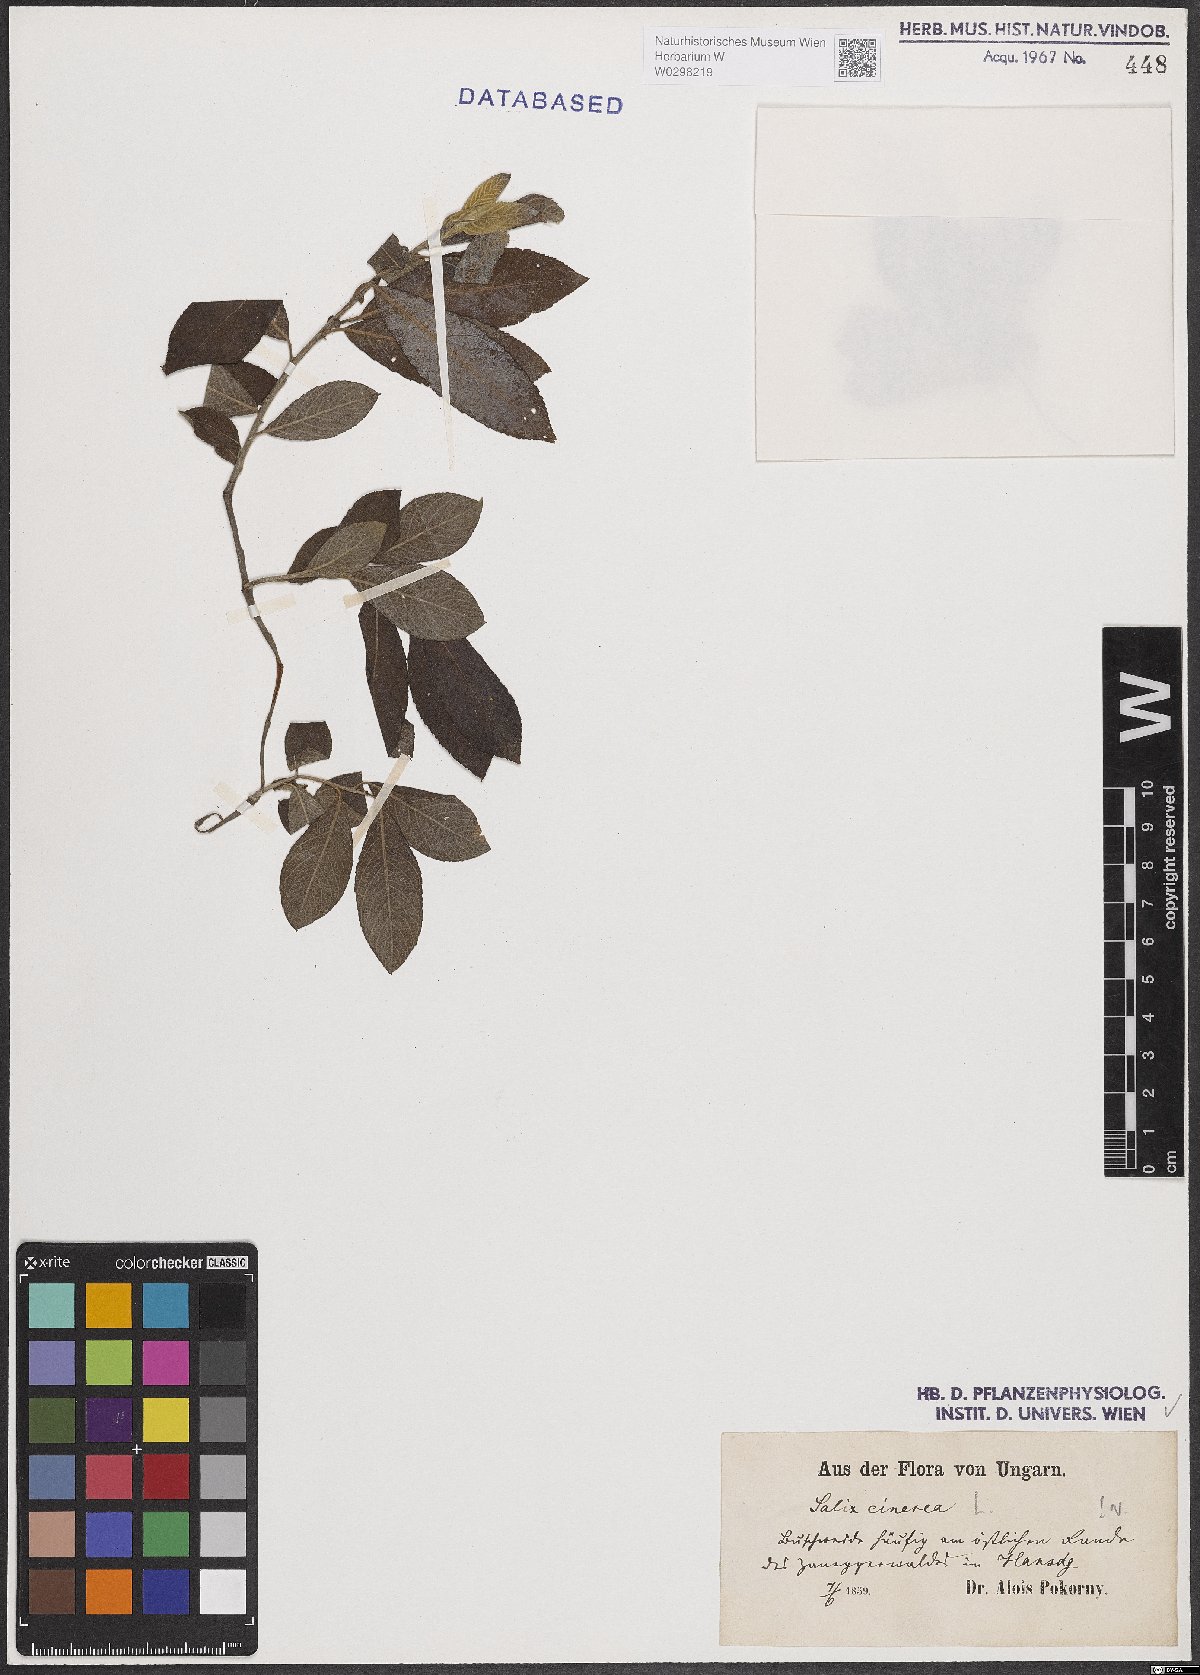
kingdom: Plantae
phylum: Tracheophyta
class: Magnoliopsida
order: Malpighiales
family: Salicaceae
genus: Salix
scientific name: Salix cinerea
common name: Common sallow
